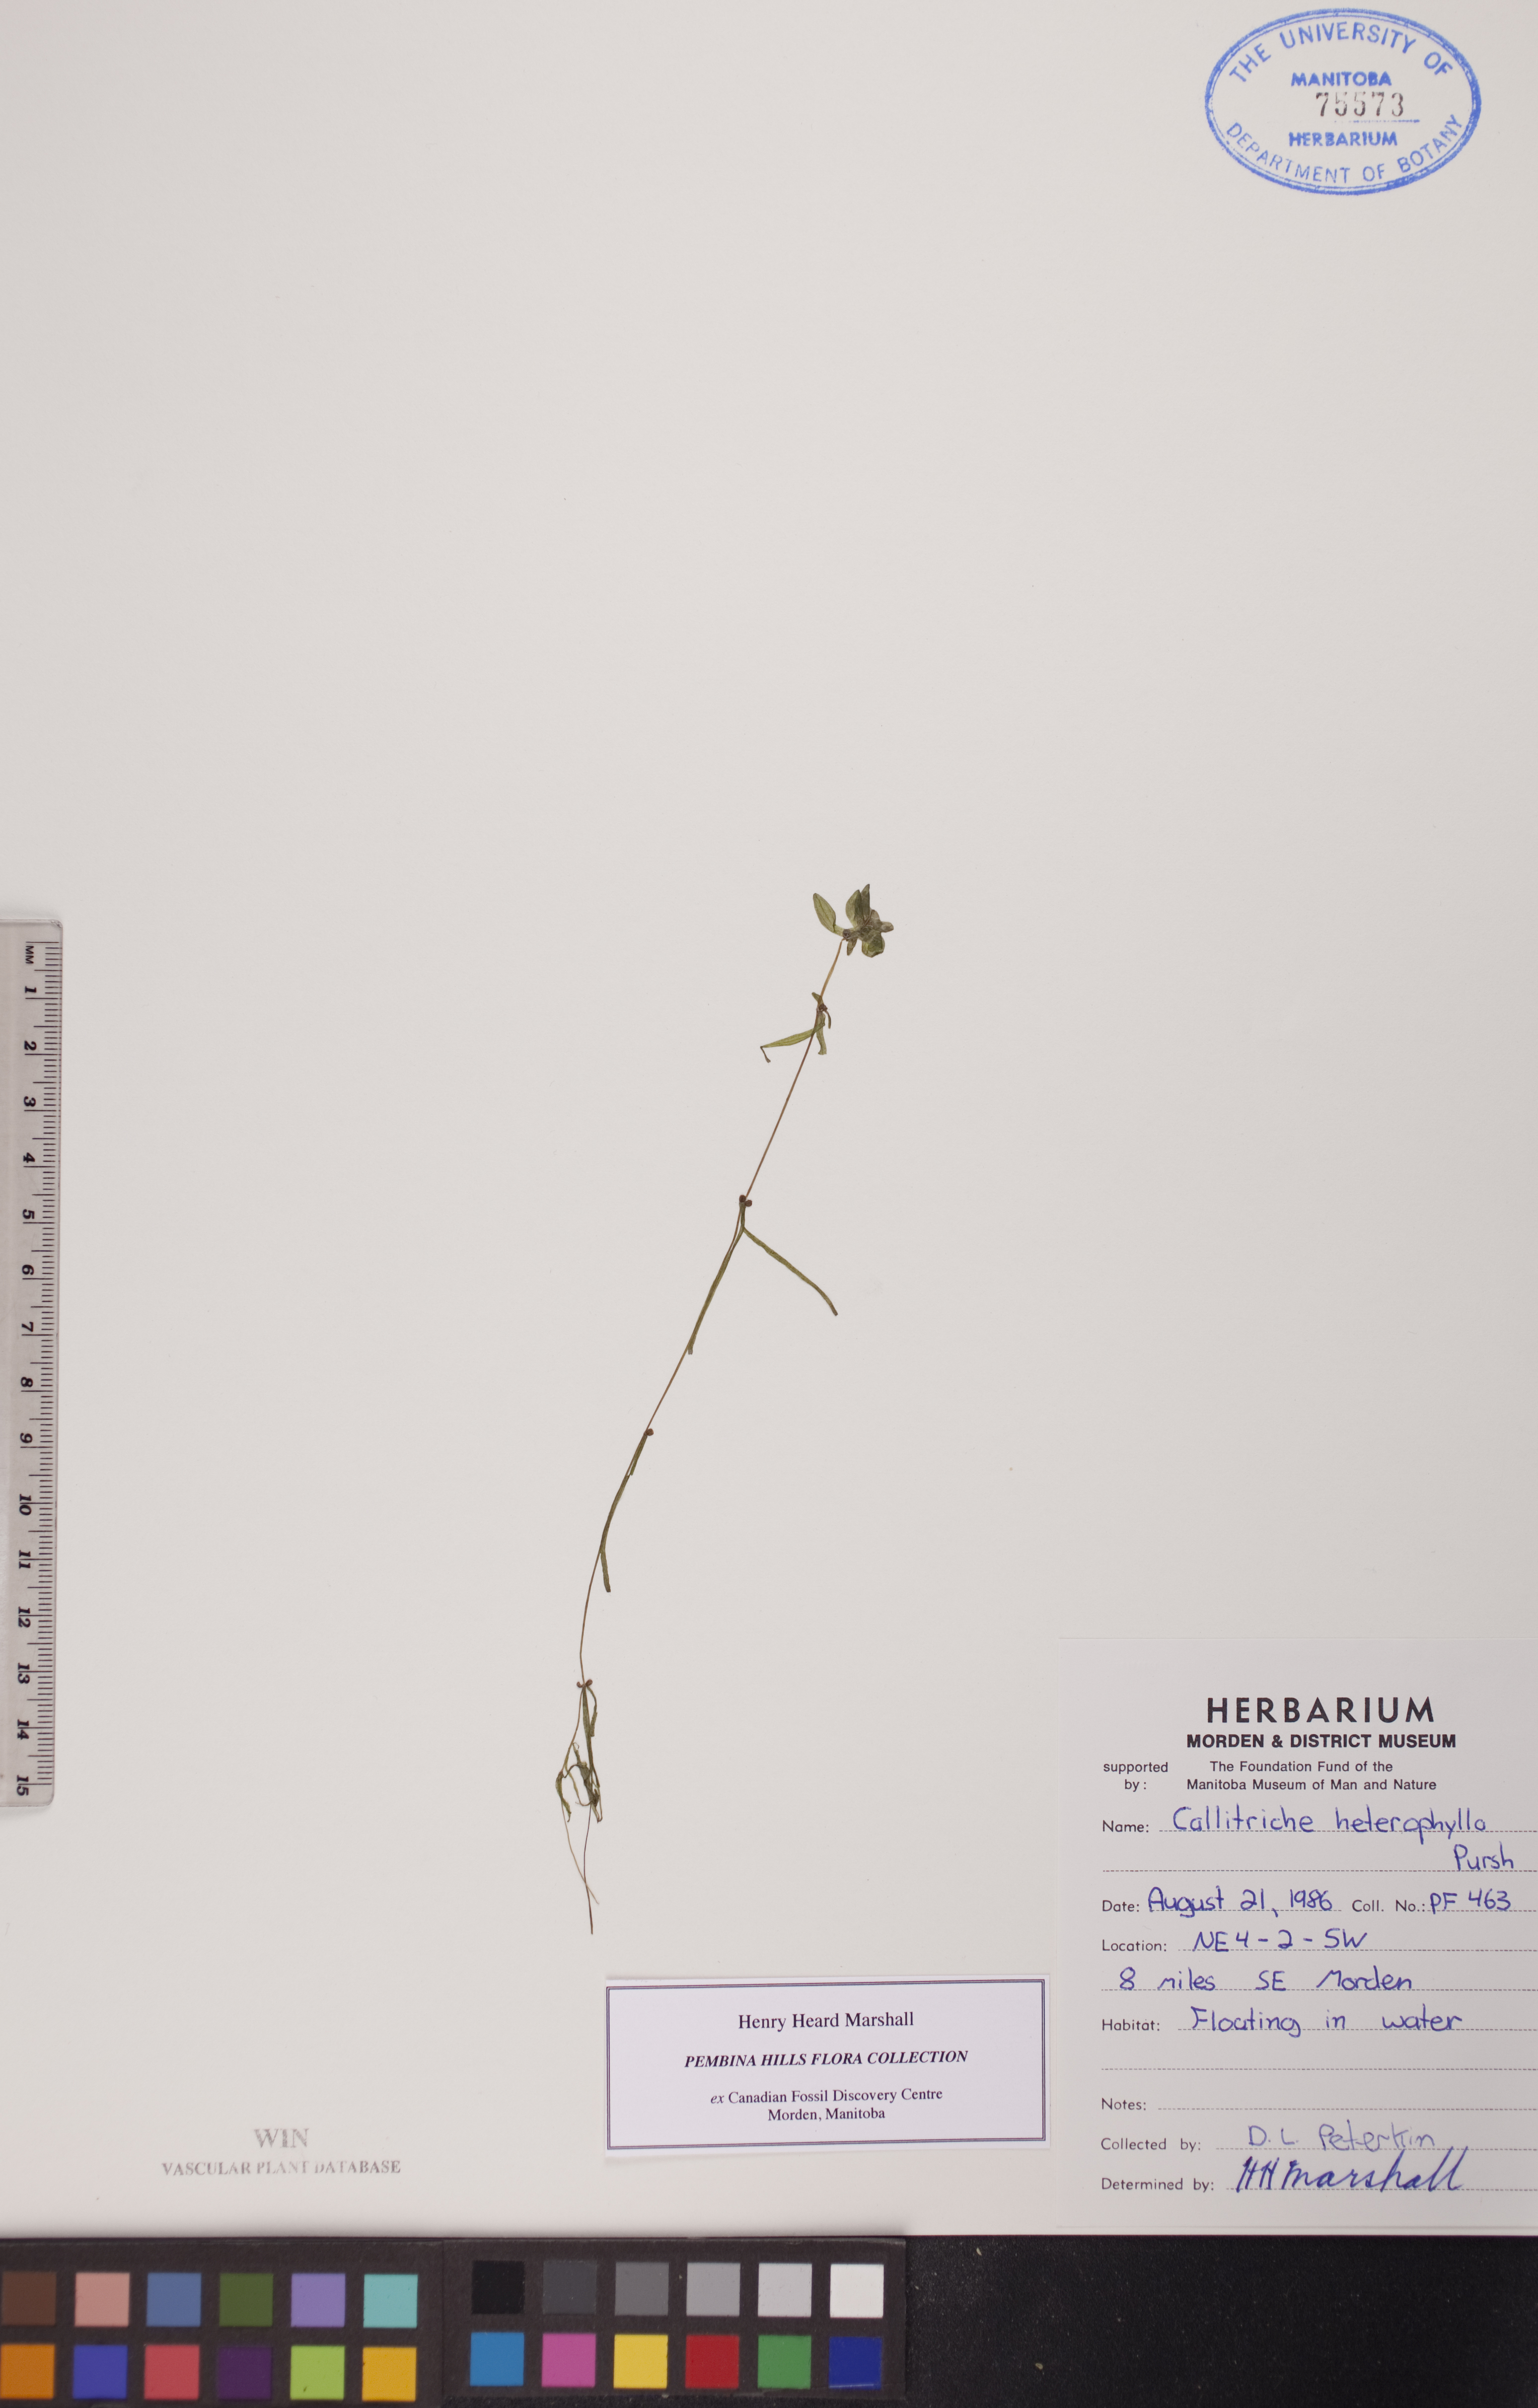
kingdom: Plantae
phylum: Tracheophyta
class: Magnoliopsida
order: Lamiales
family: Plantaginaceae
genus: Callitriche
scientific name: Callitriche heterophylla
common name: Two-headed water-starwort
